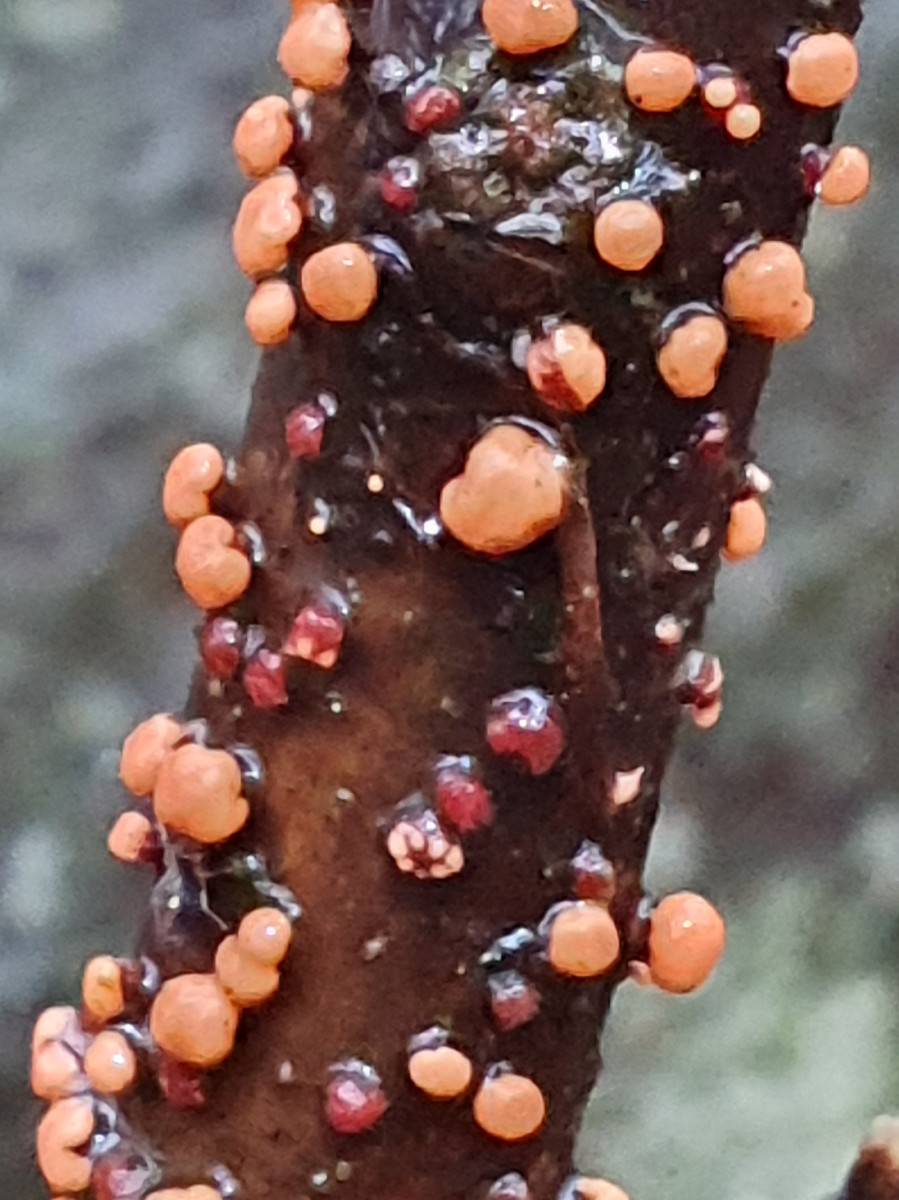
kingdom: Fungi
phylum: Ascomycota
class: Sordariomycetes
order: Hypocreales
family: Nectriaceae
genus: Nectria
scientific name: Nectria cinnabarina
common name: almindelig cinnobersvamp
